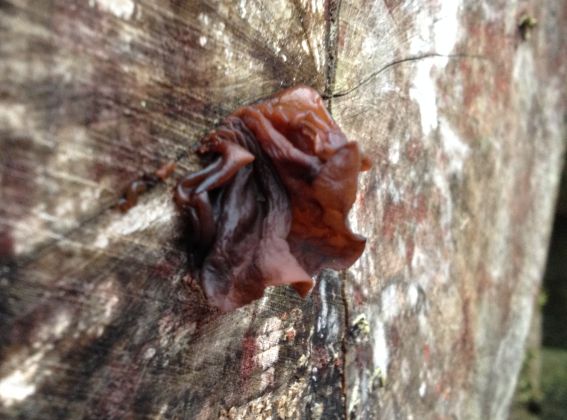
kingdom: Fungi
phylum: Basidiomycota
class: Tremellomycetes
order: Tremellales
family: Tremellaceae
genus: Phaeotremella
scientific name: Phaeotremella frondosa
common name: kæmpe-bævresvamp
